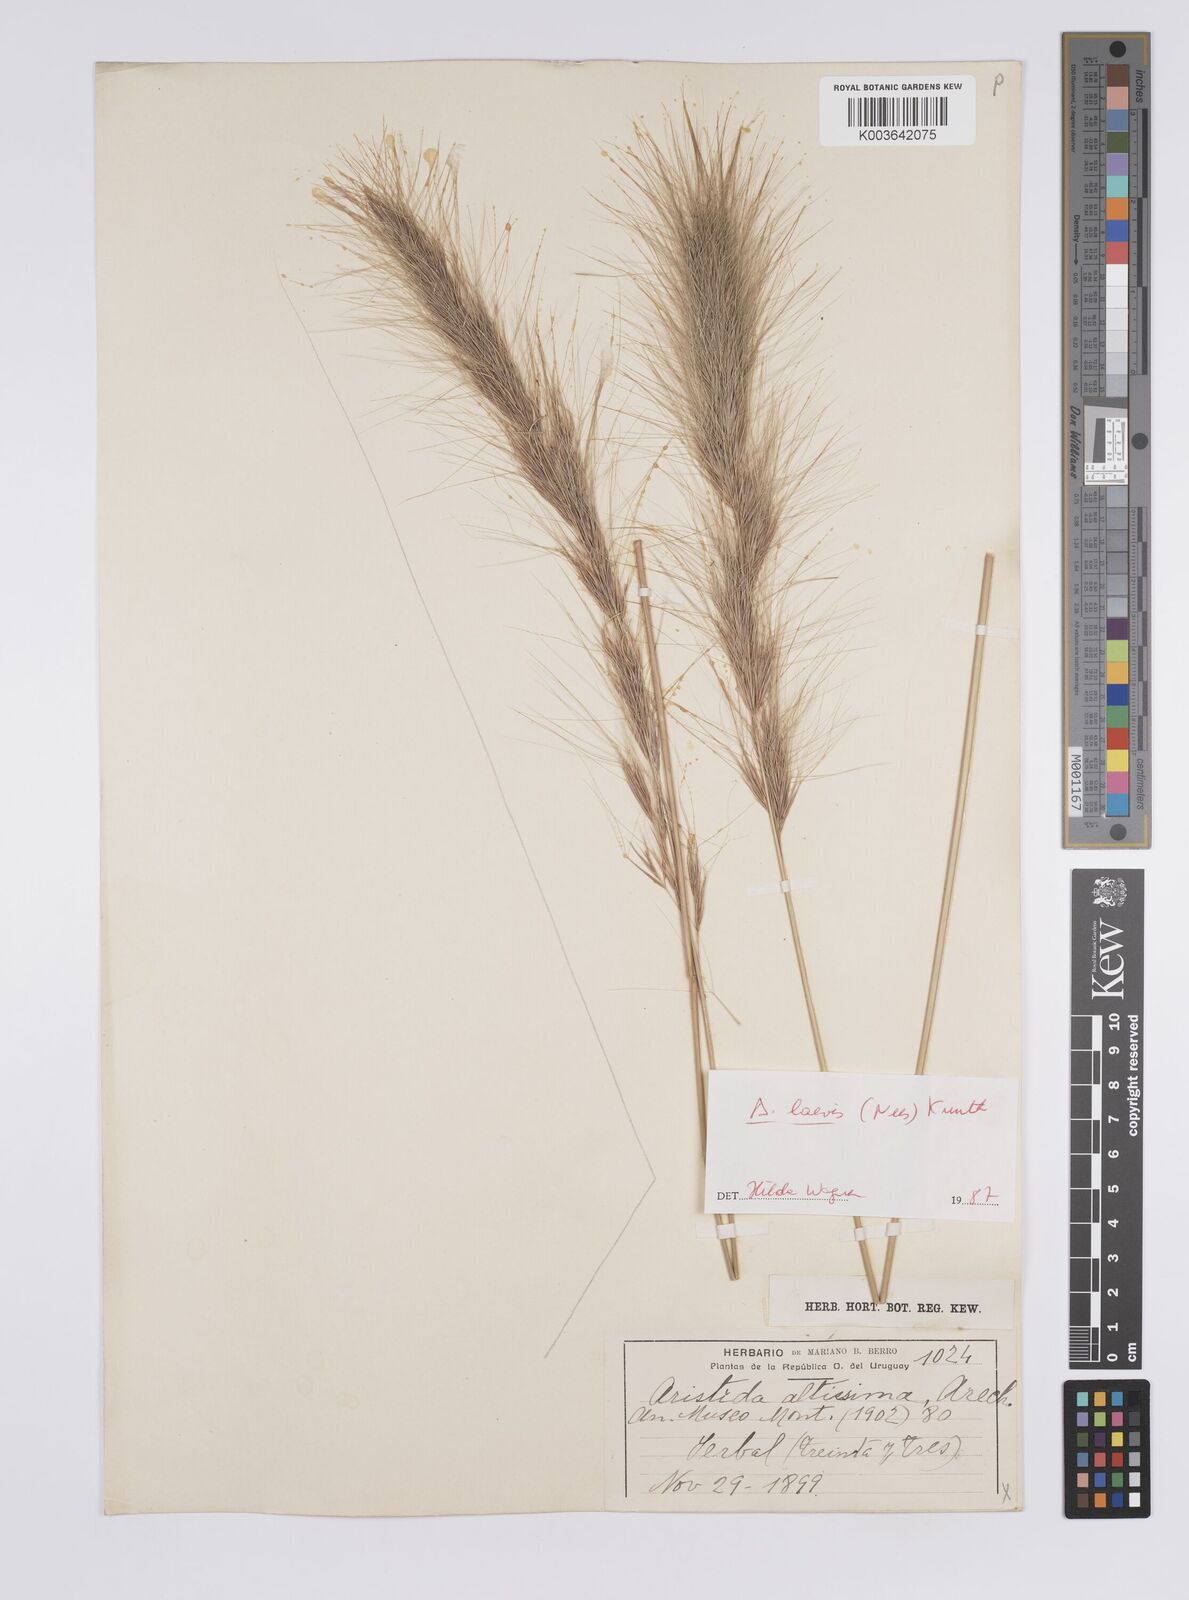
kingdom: Plantae
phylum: Tracheophyta
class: Liliopsida
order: Poales
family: Poaceae
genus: Aristida
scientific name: Aristida laevis
